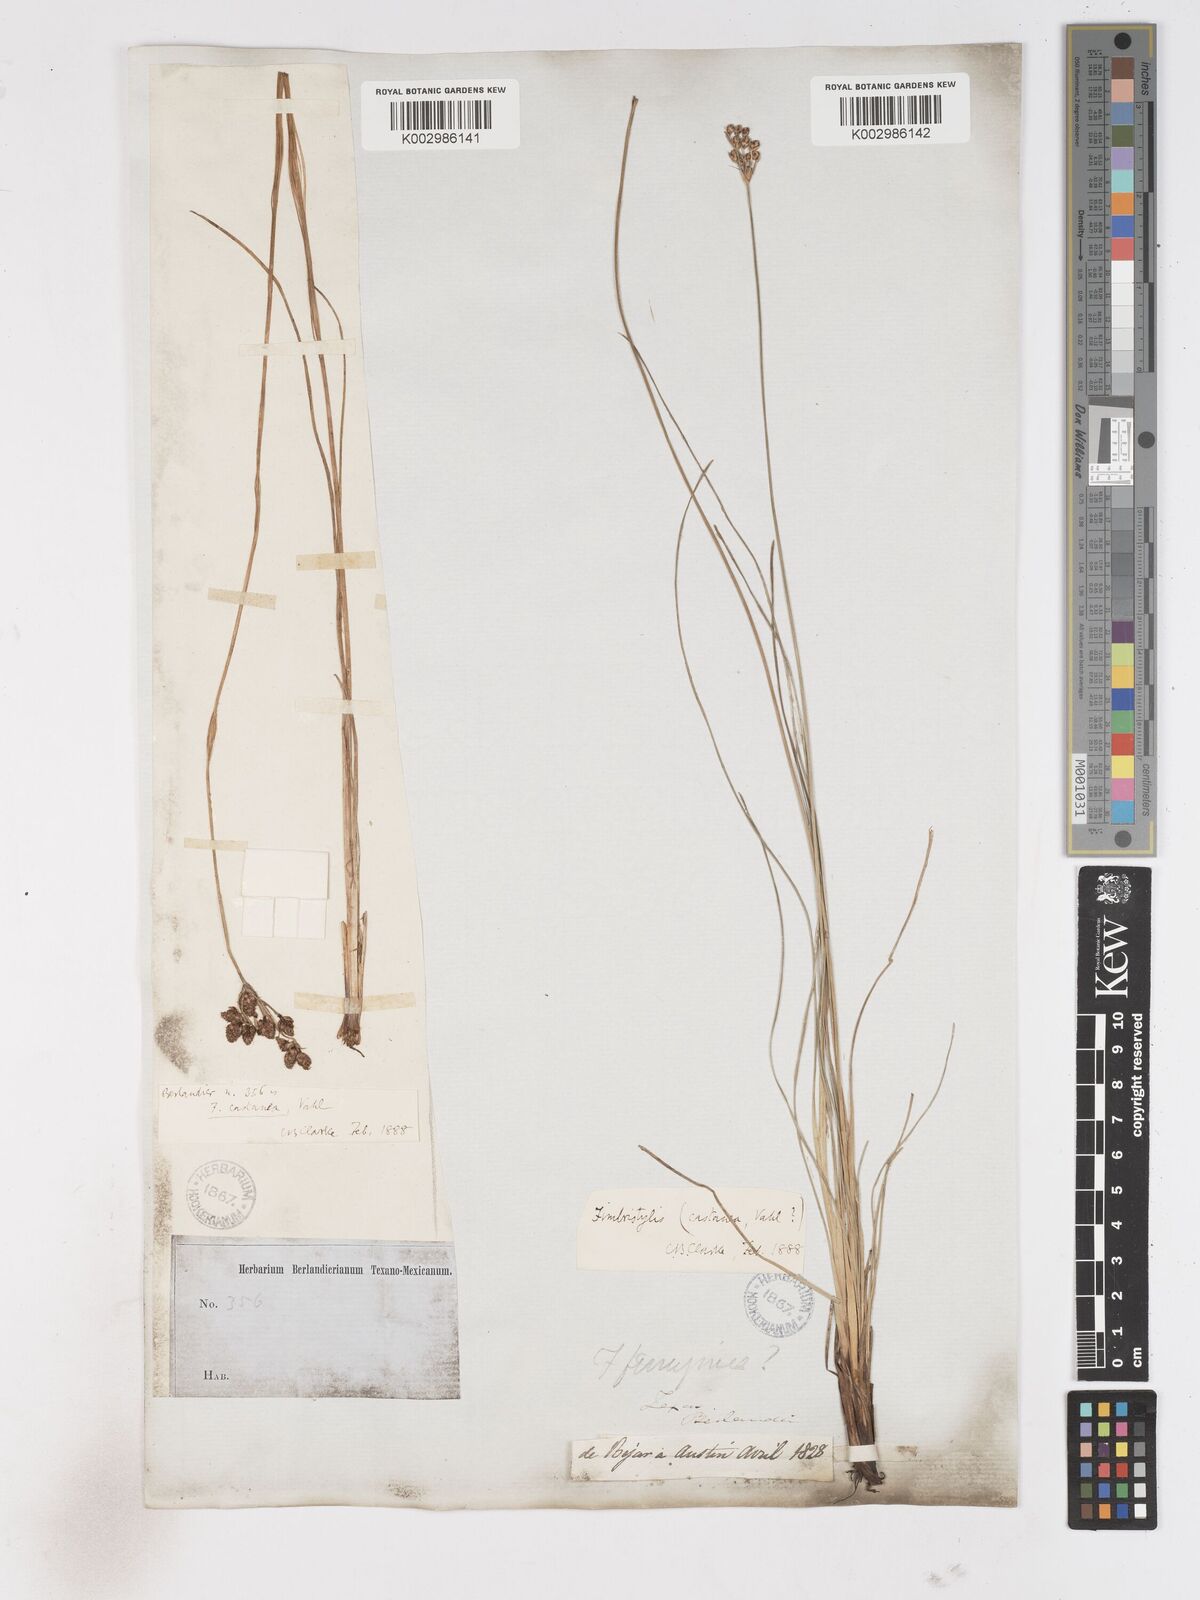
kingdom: Plantae
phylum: Tracheophyta
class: Liliopsida
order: Poales
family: Cyperaceae
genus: Fimbristylis
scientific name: Fimbristylis spadicea
